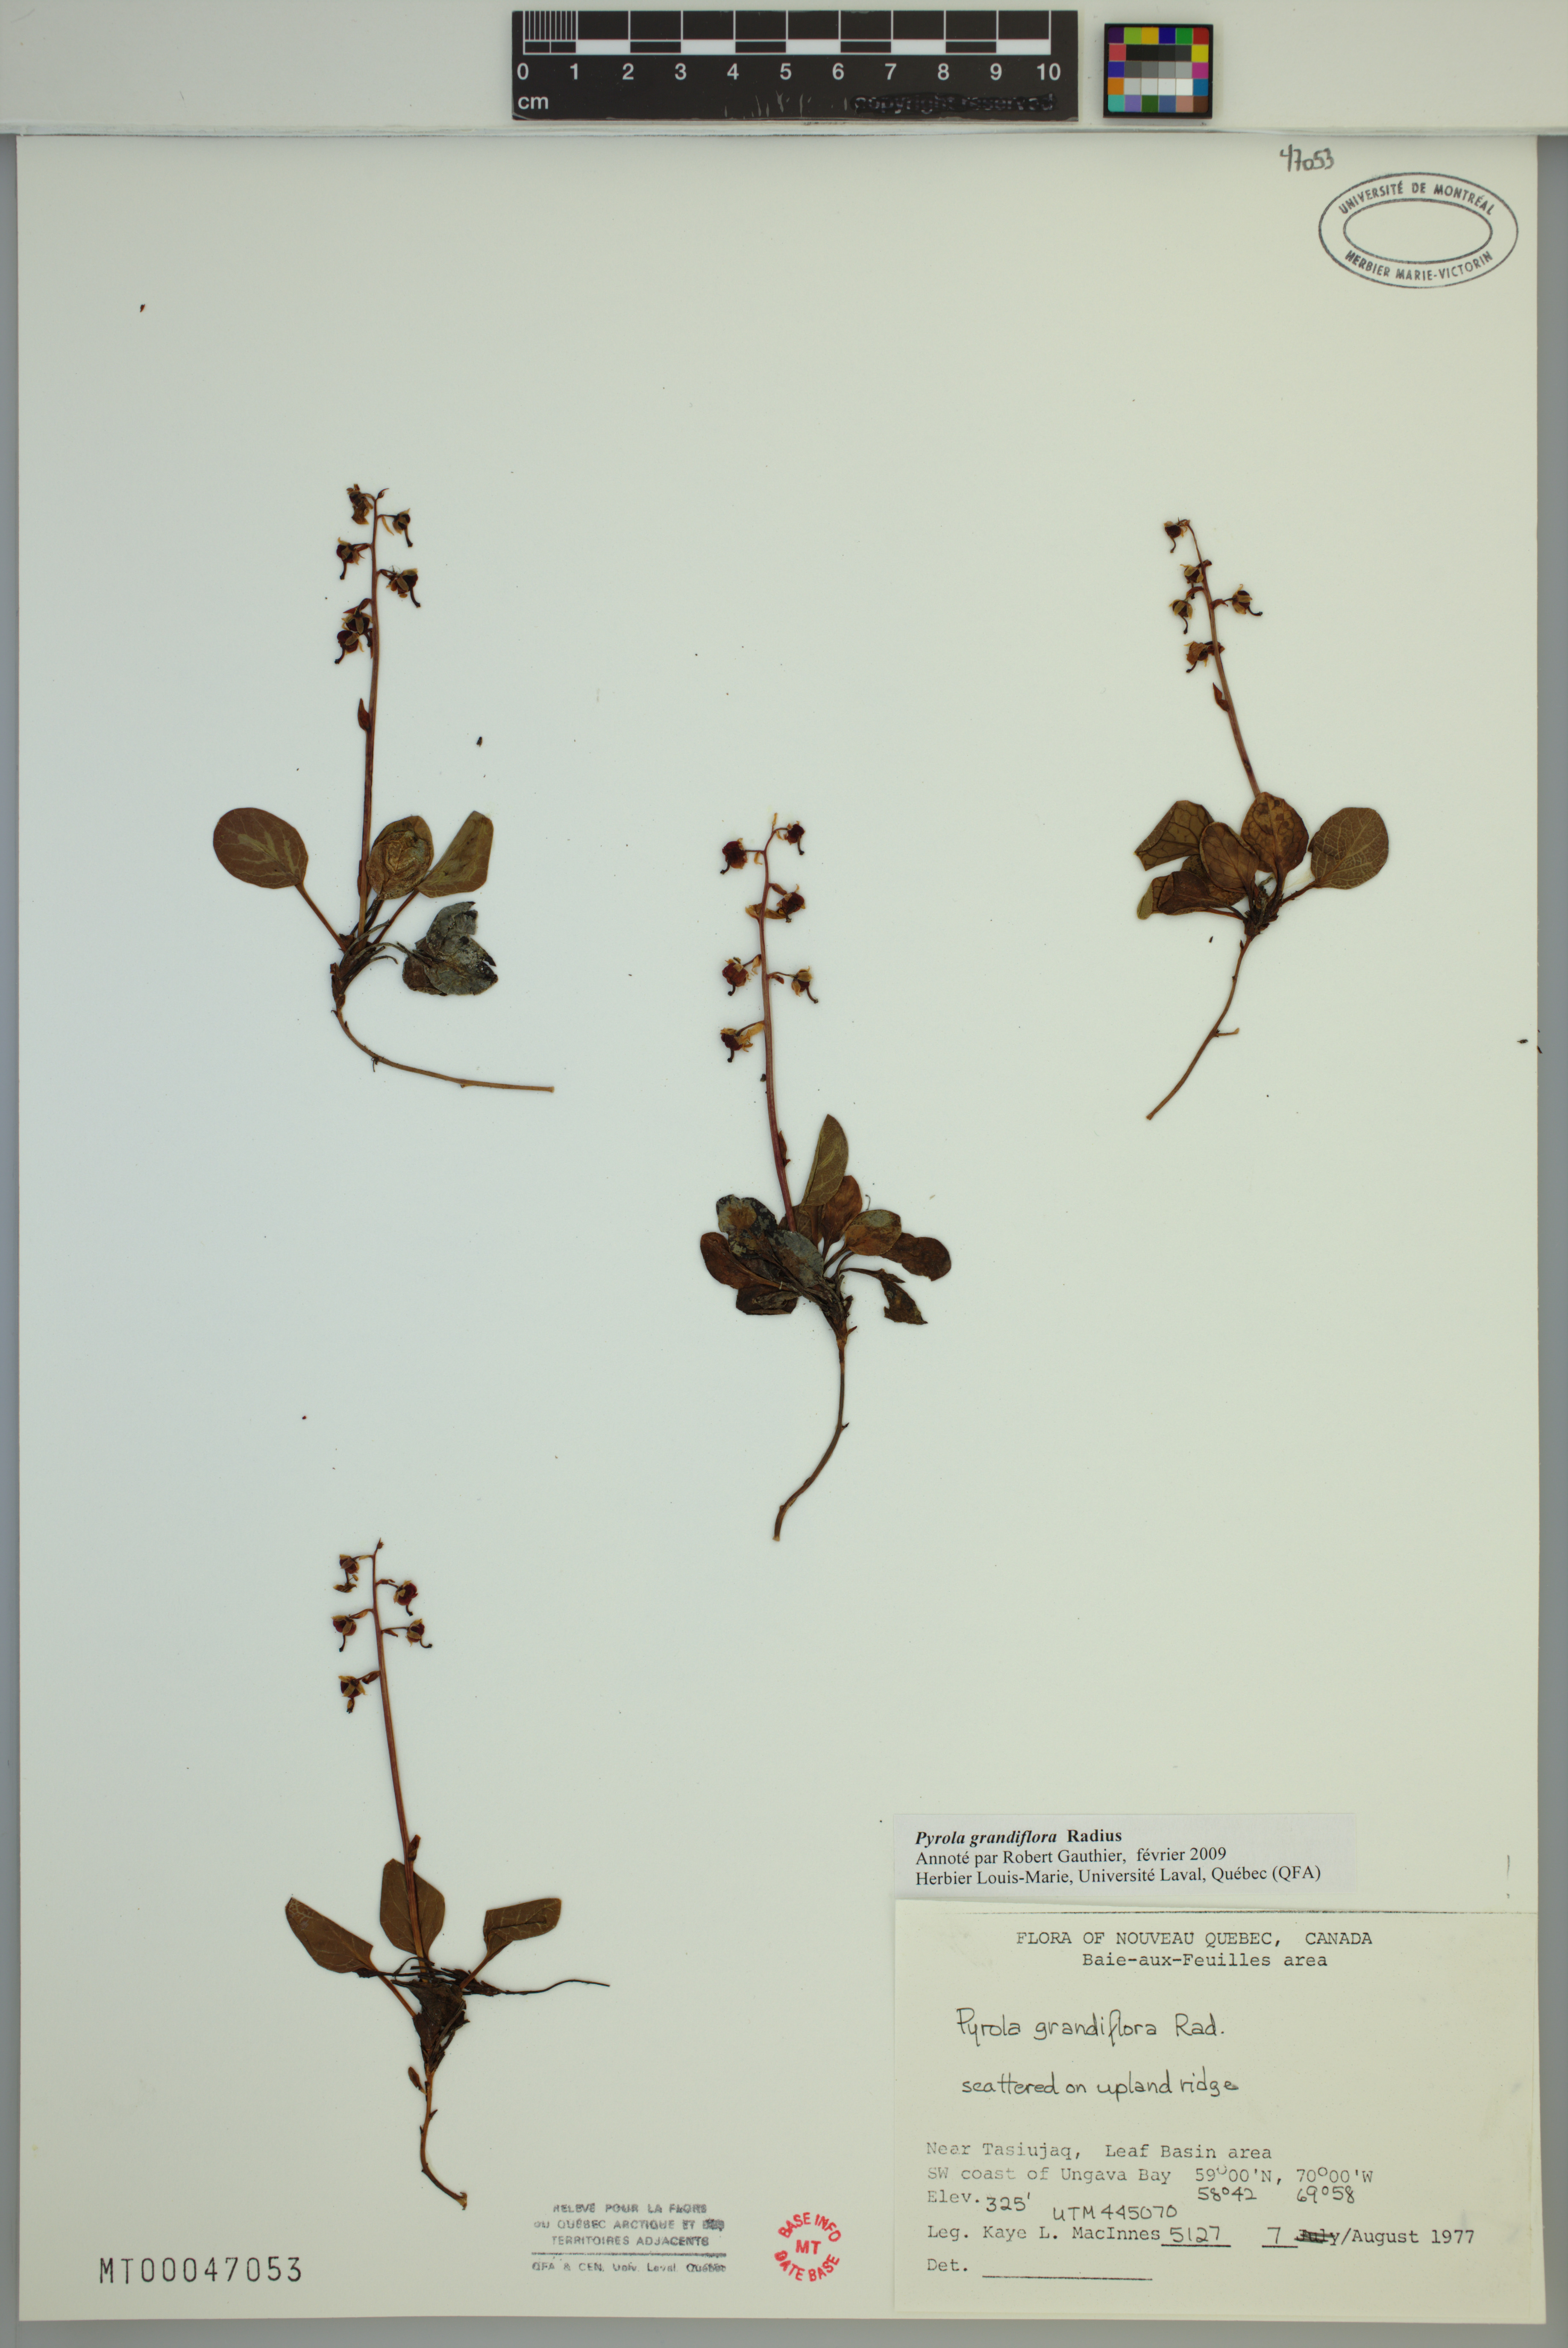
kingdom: Plantae
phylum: Tracheophyta
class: Magnoliopsida
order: Ericales
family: Ericaceae
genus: Pyrola
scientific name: Pyrola grandiflora
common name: Arctic pyrola
